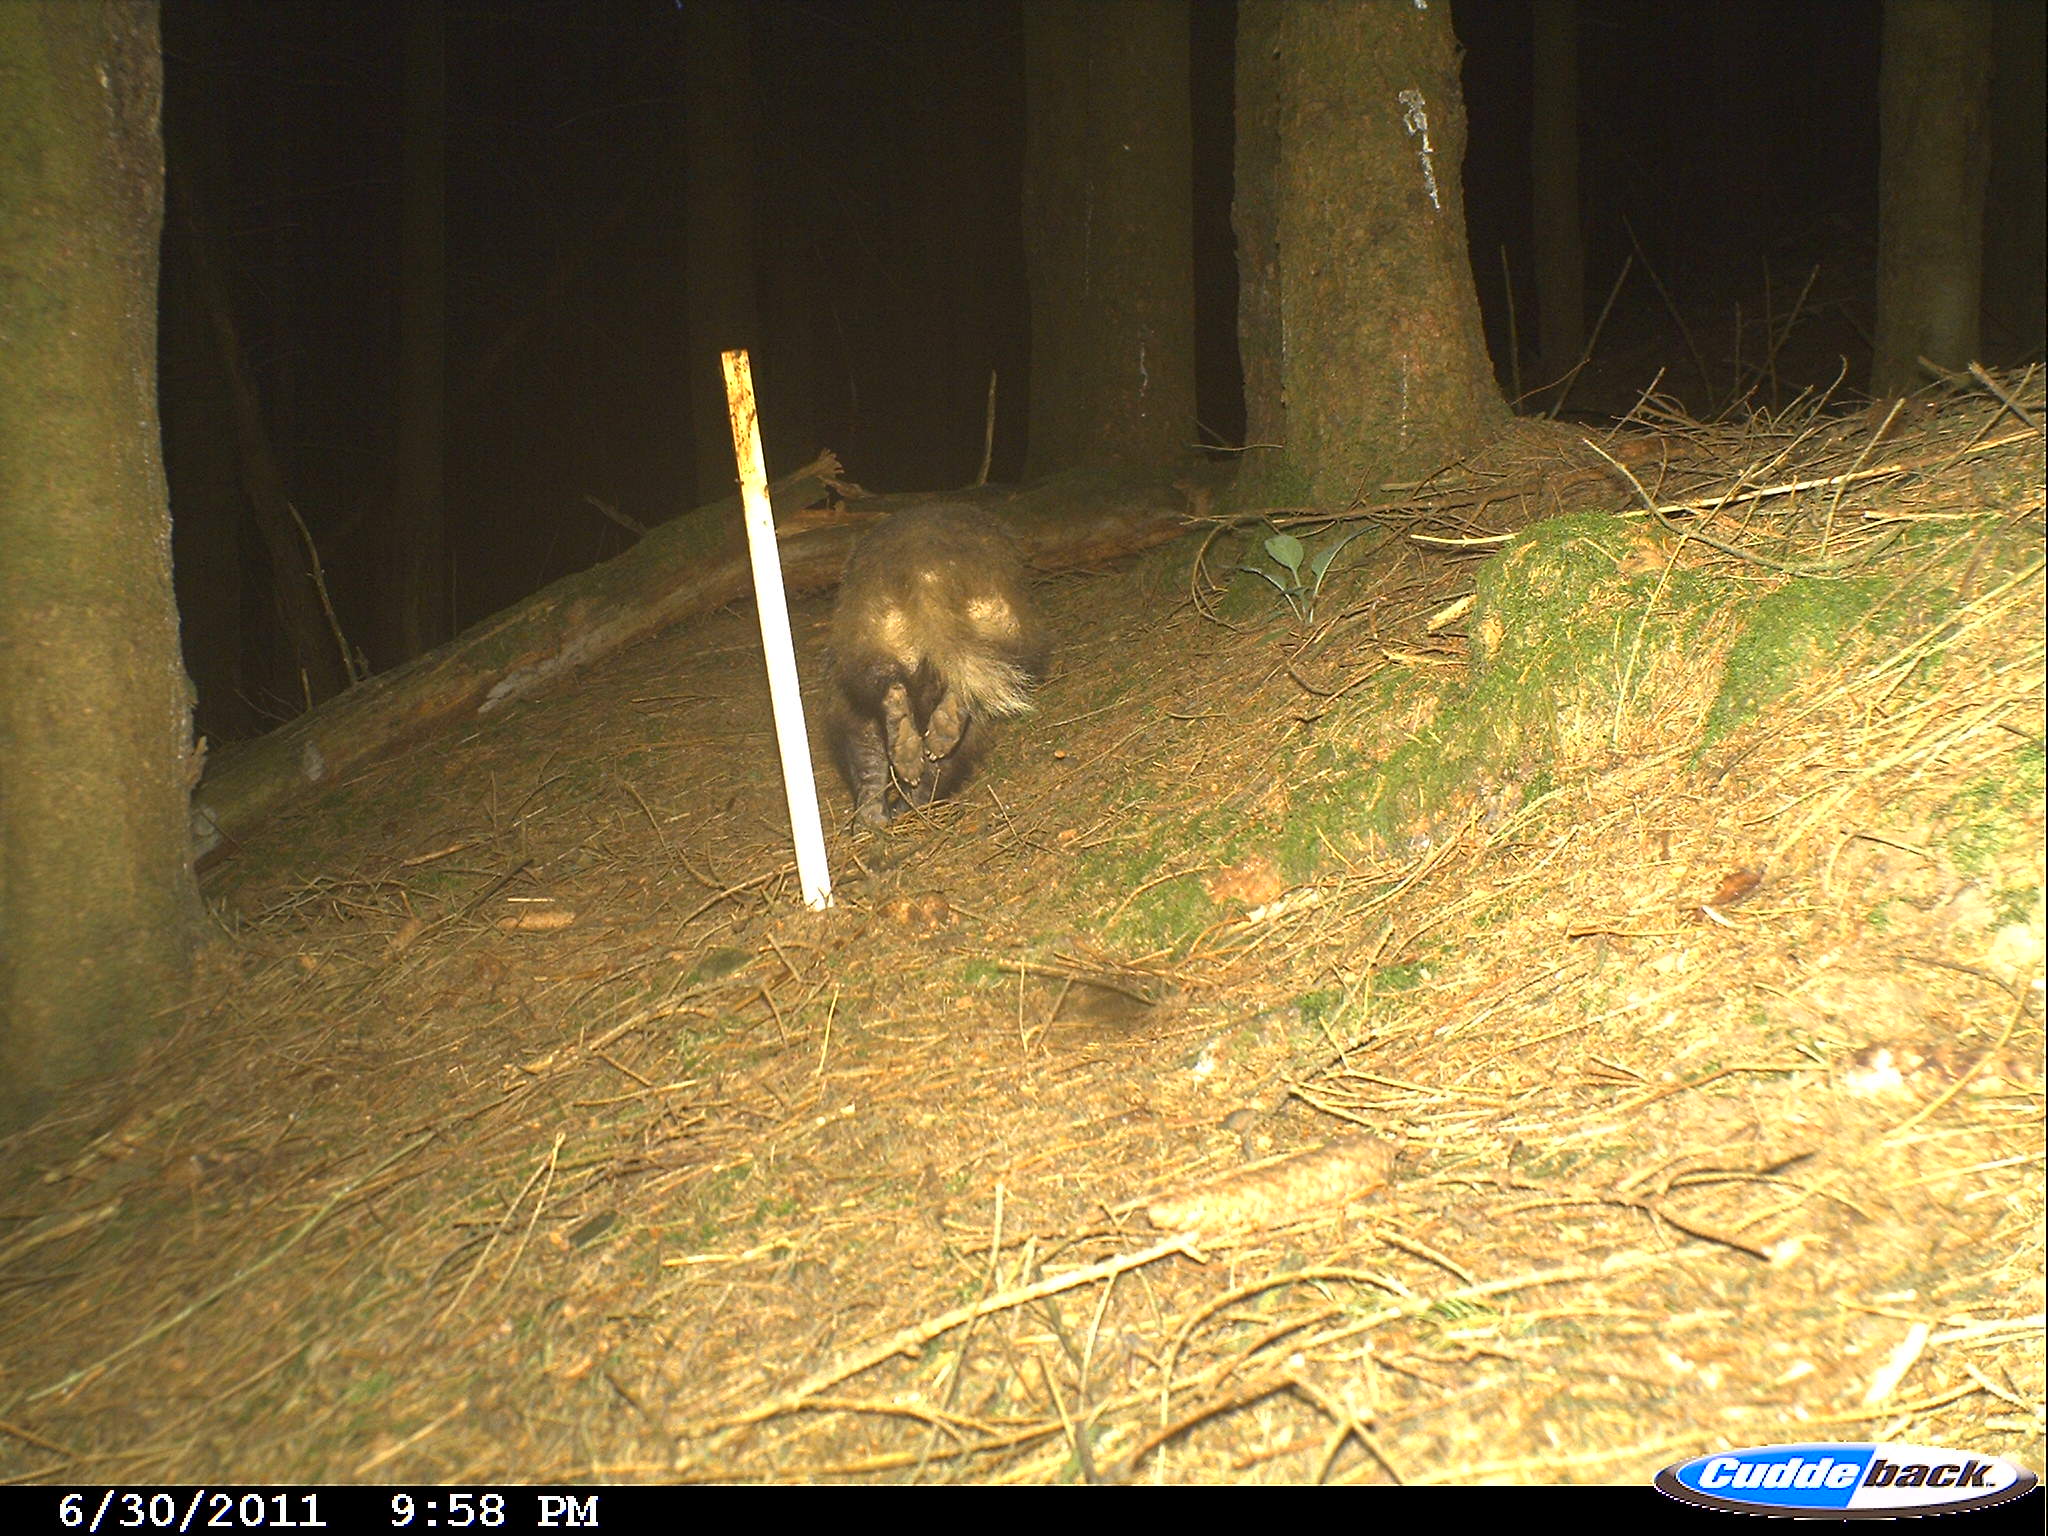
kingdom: Animalia
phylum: Chordata
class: Mammalia
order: Carnivora
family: Mustelidae
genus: Meles
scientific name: Meles meles
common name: Eurasian badger
